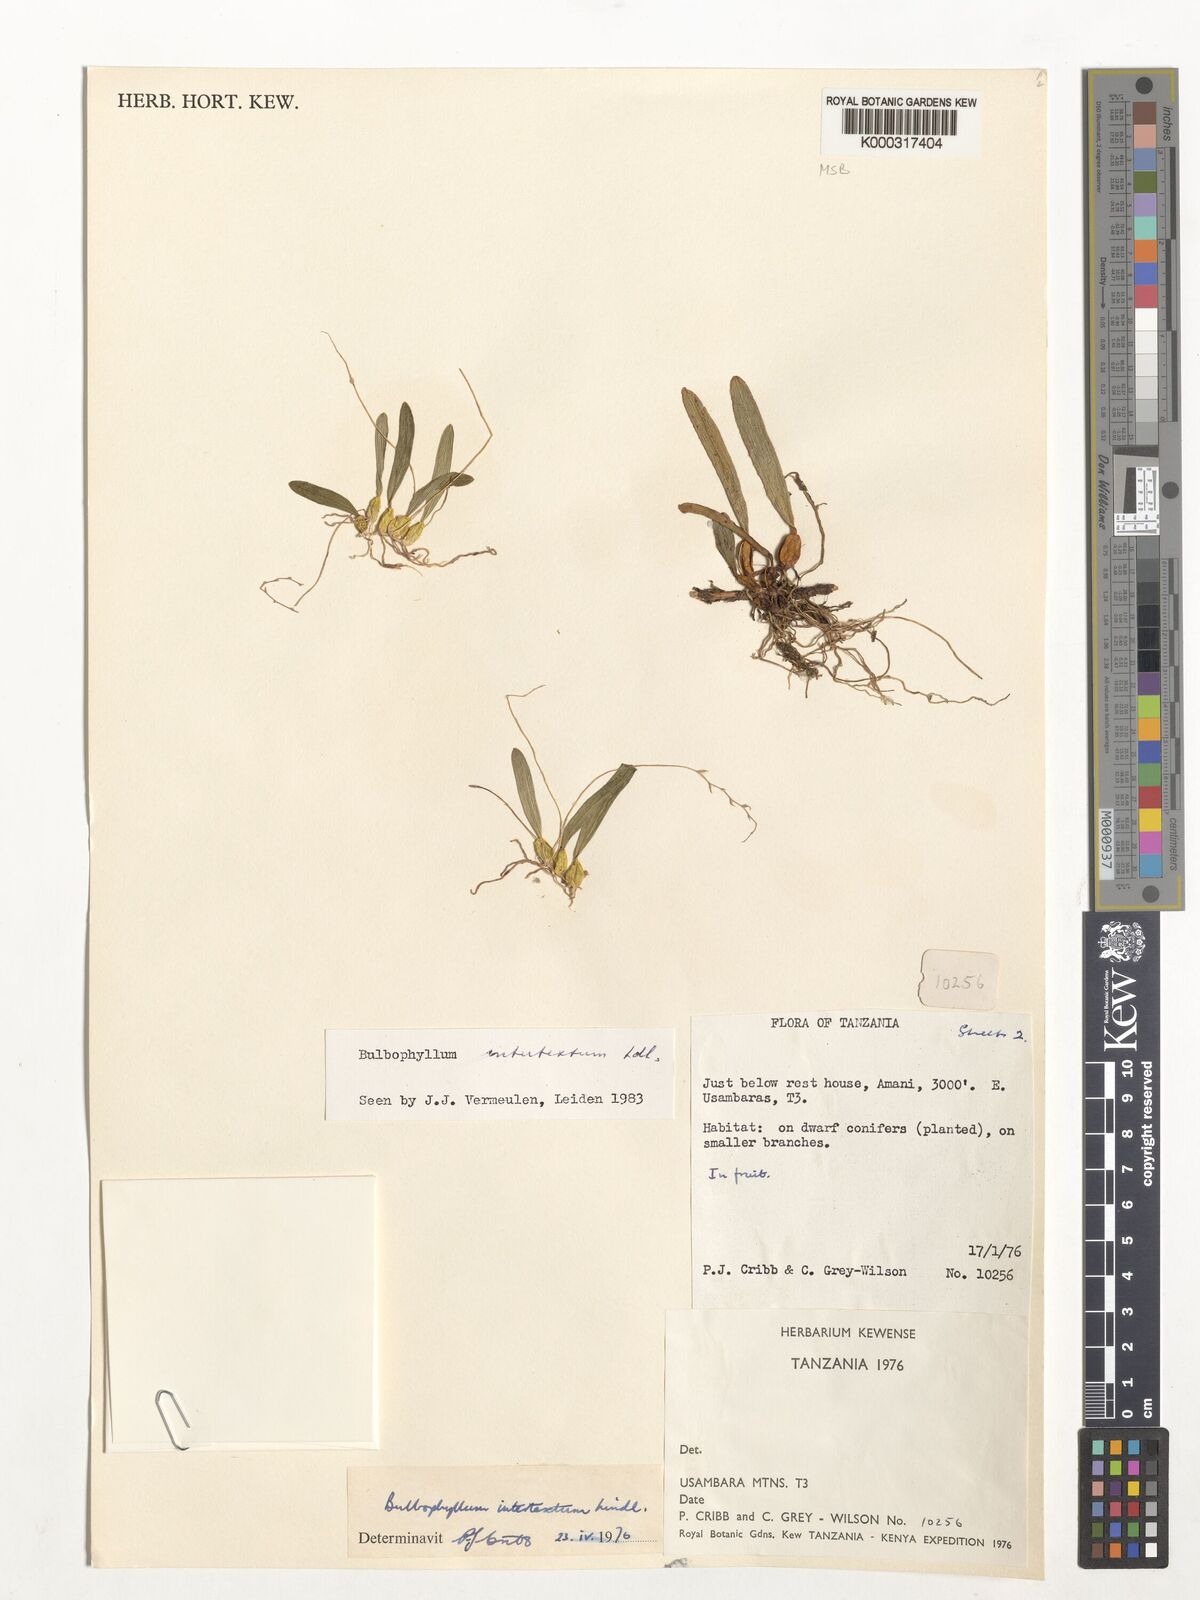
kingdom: Plantae
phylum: Tracheophyta
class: Liliopsida
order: Asparagales
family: Orchidaceae
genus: Bulbophyllum
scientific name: Bulbophyllum intertextum
